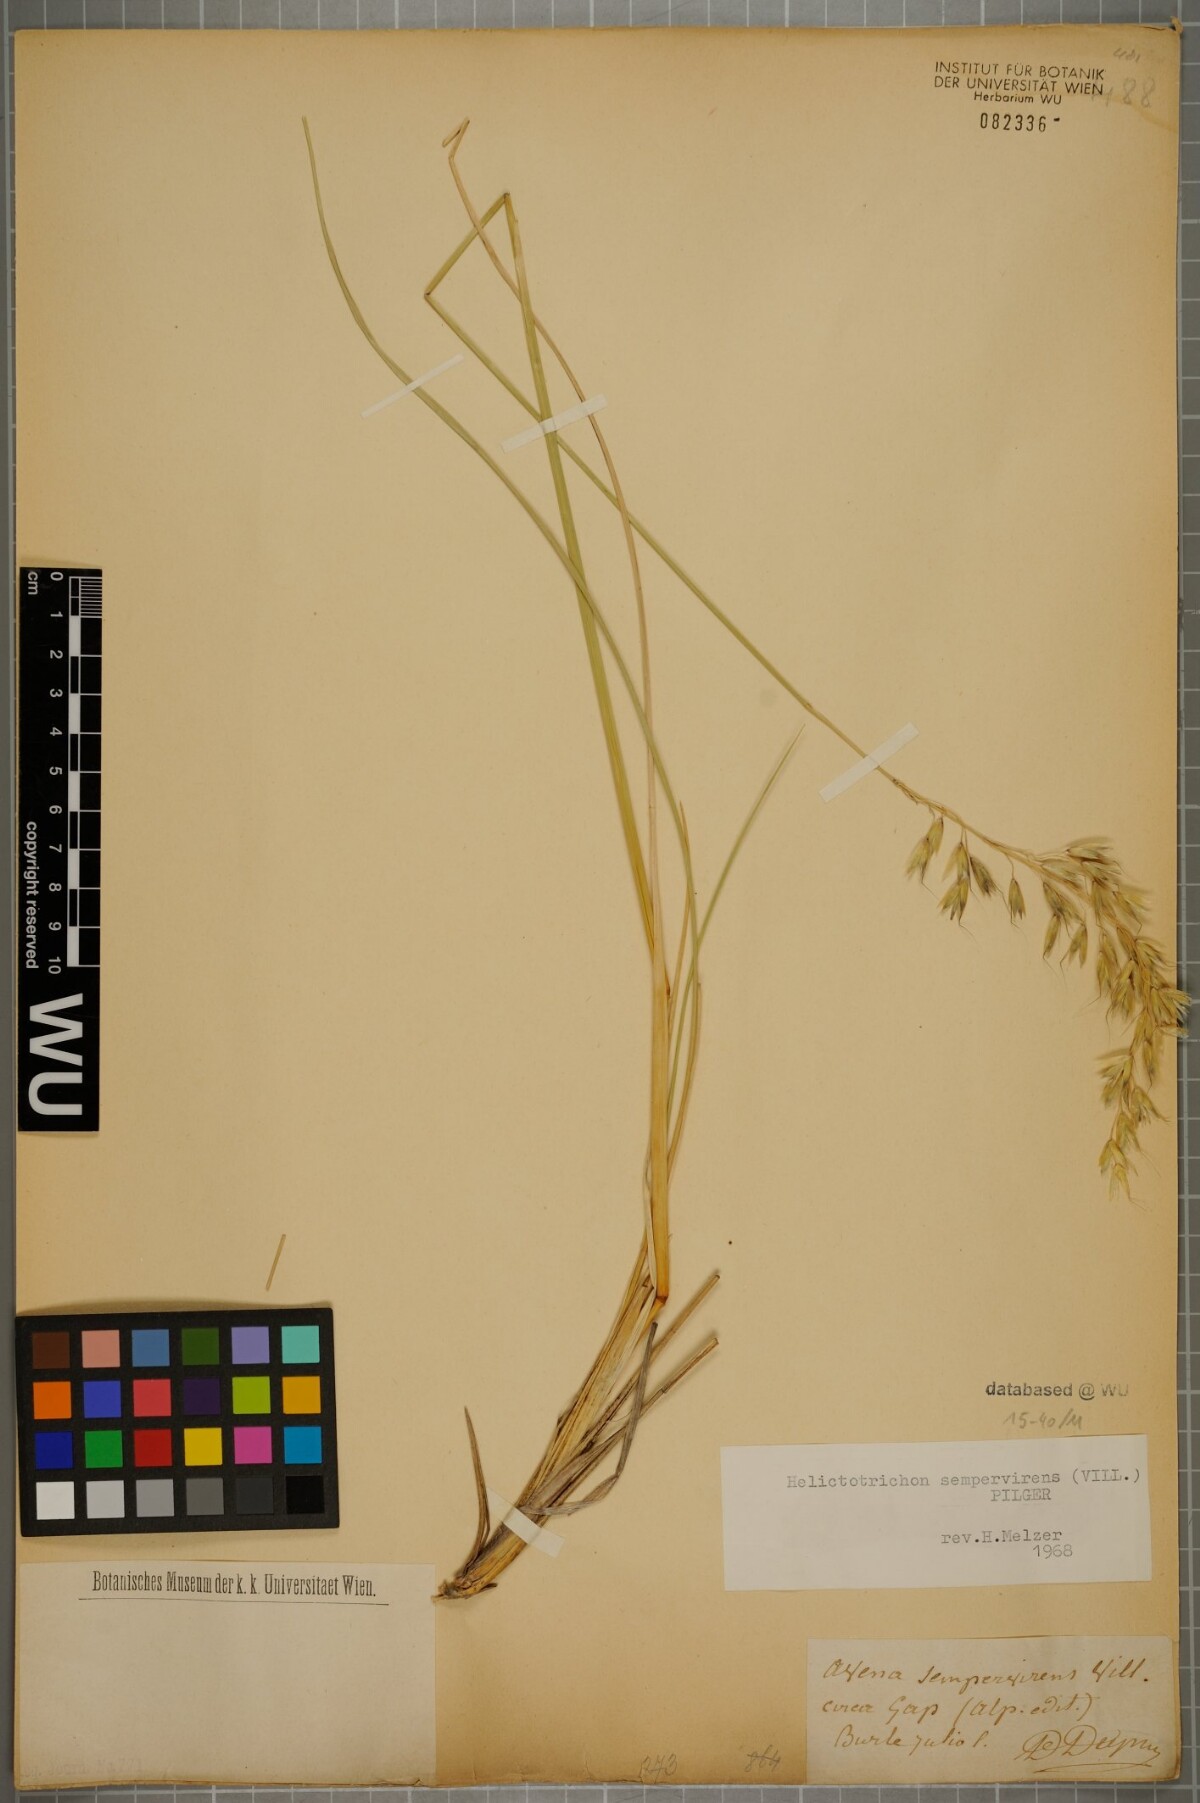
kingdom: Plantae
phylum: Tracheophyta
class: Liliopsida
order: Poales
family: Poaceae
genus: Helictotrichon
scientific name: Helictotrichon sempervirens
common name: Blue oat-grass
